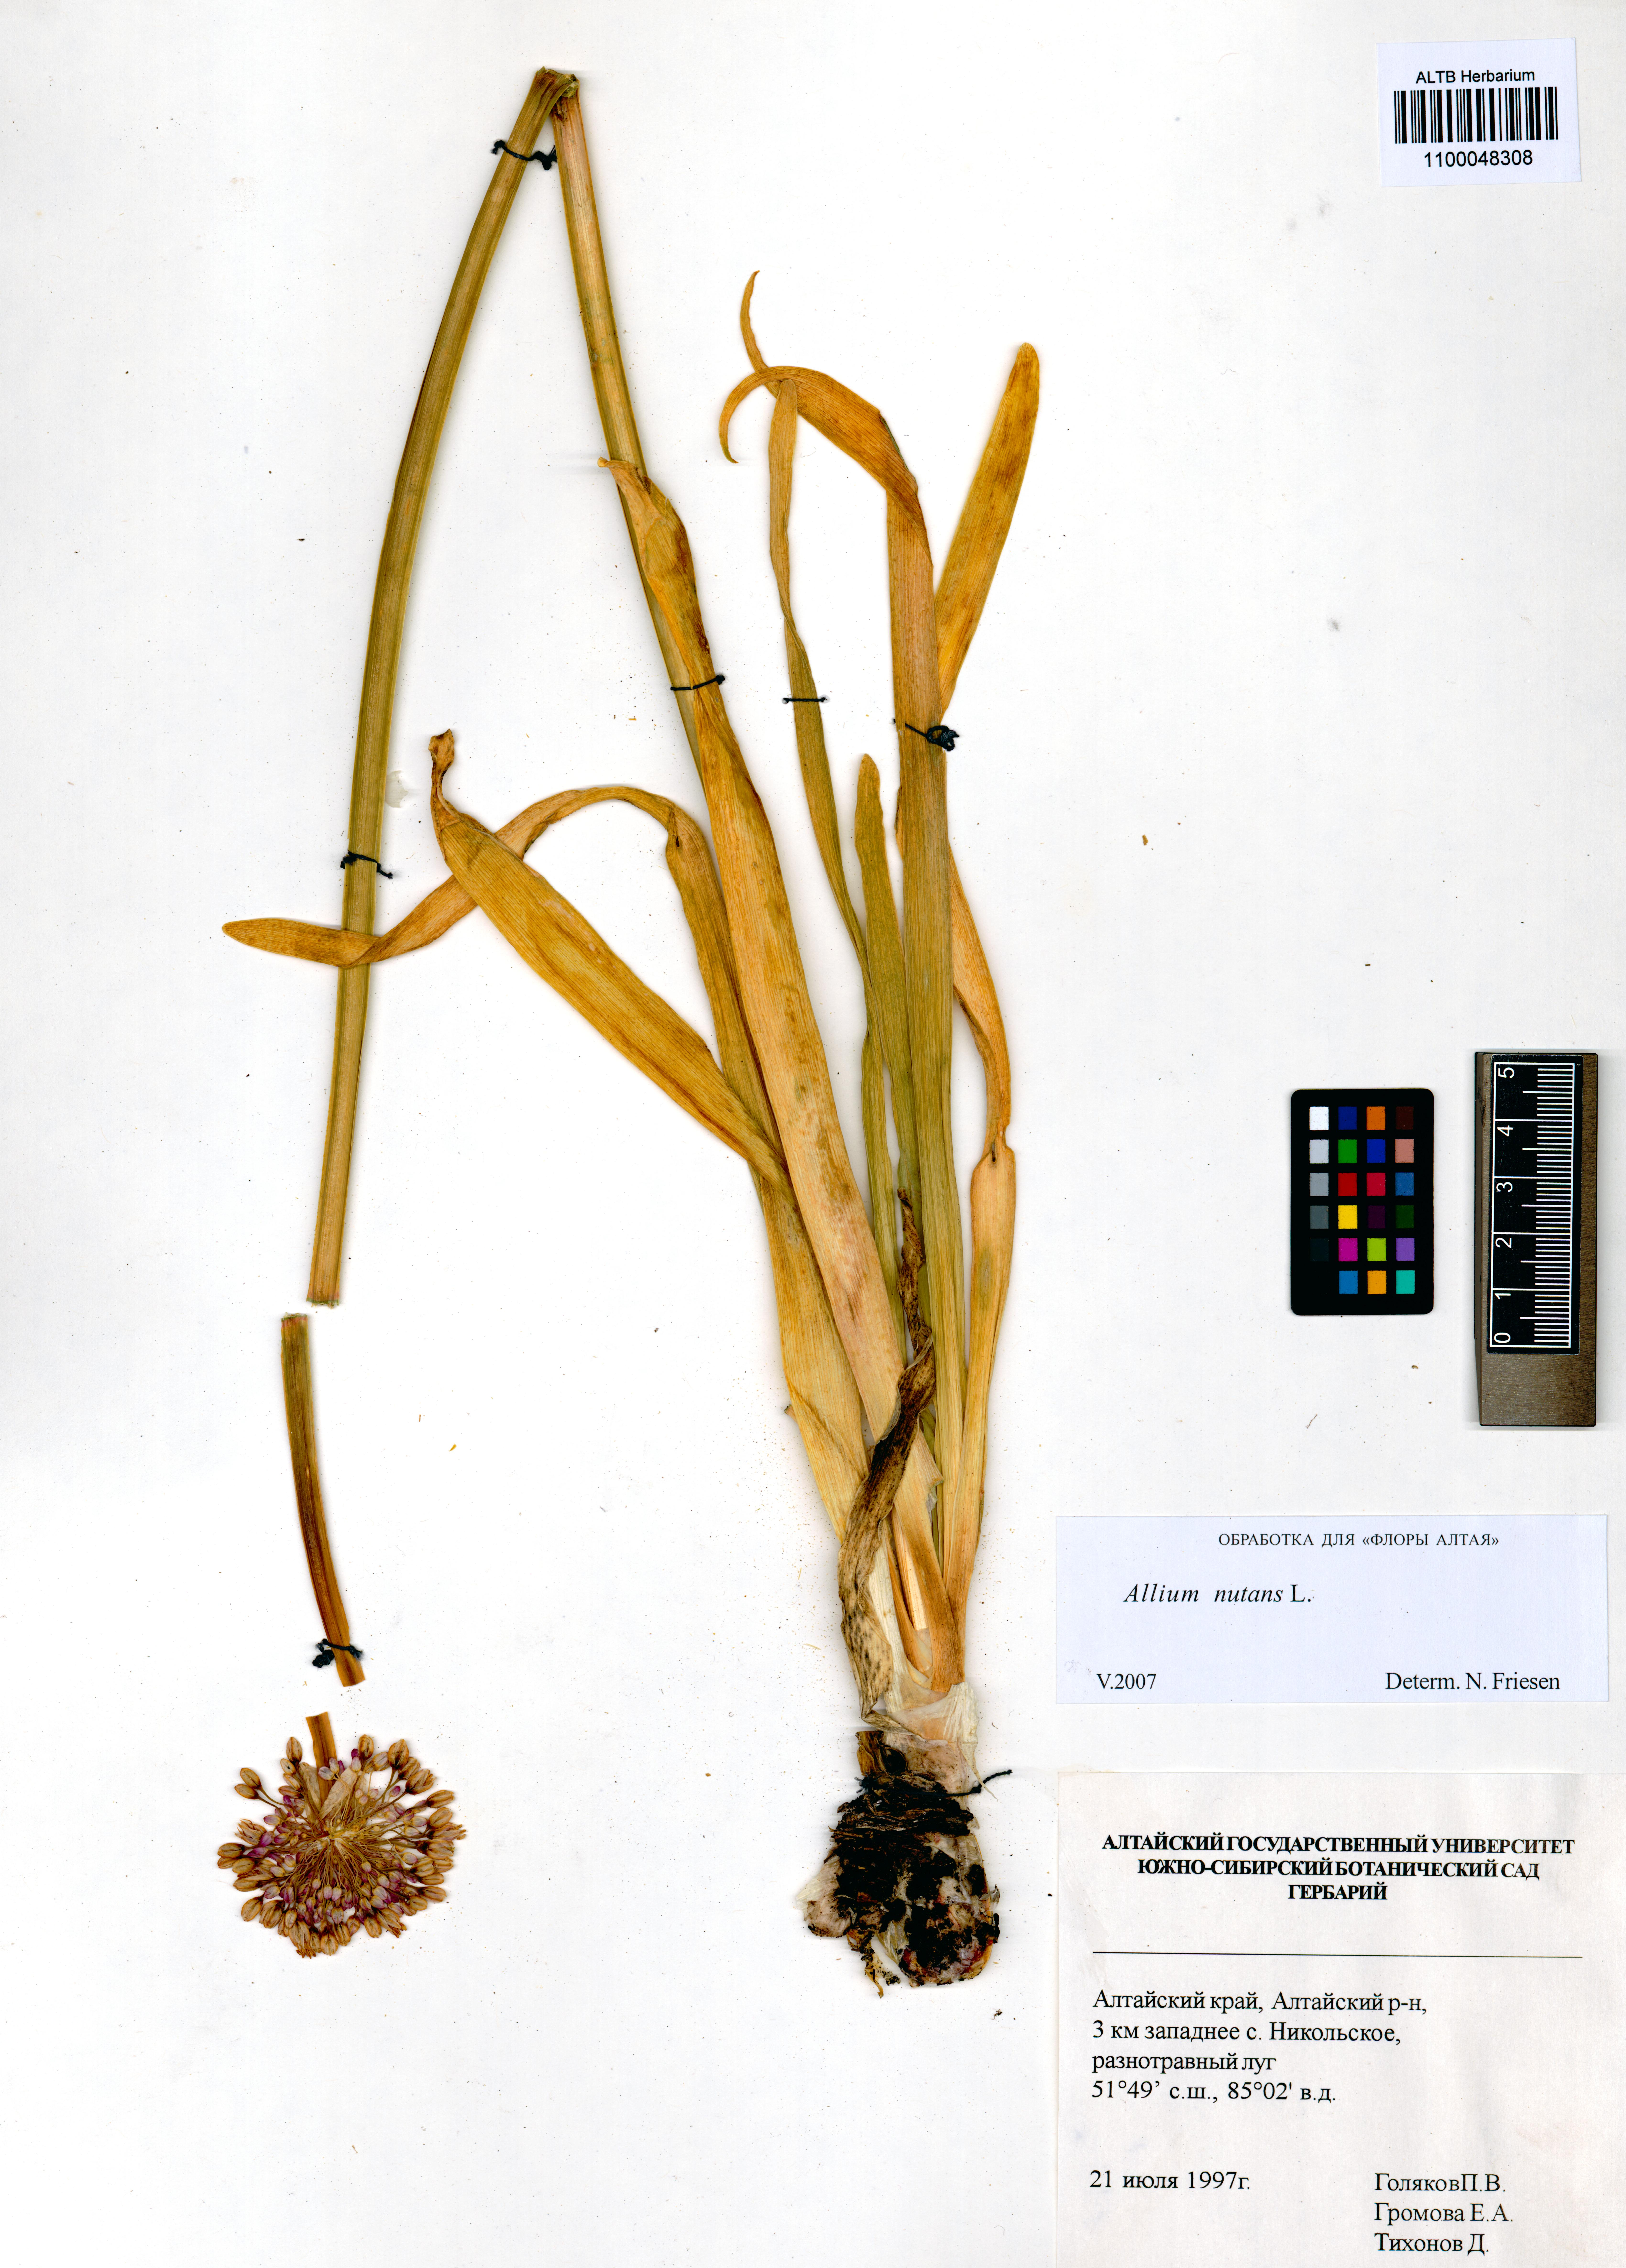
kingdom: Plantae
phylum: Tracheophyta
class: Liliopsida
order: Asparagales
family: Amaryllidaceae
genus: Allium
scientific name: Allium nutans
